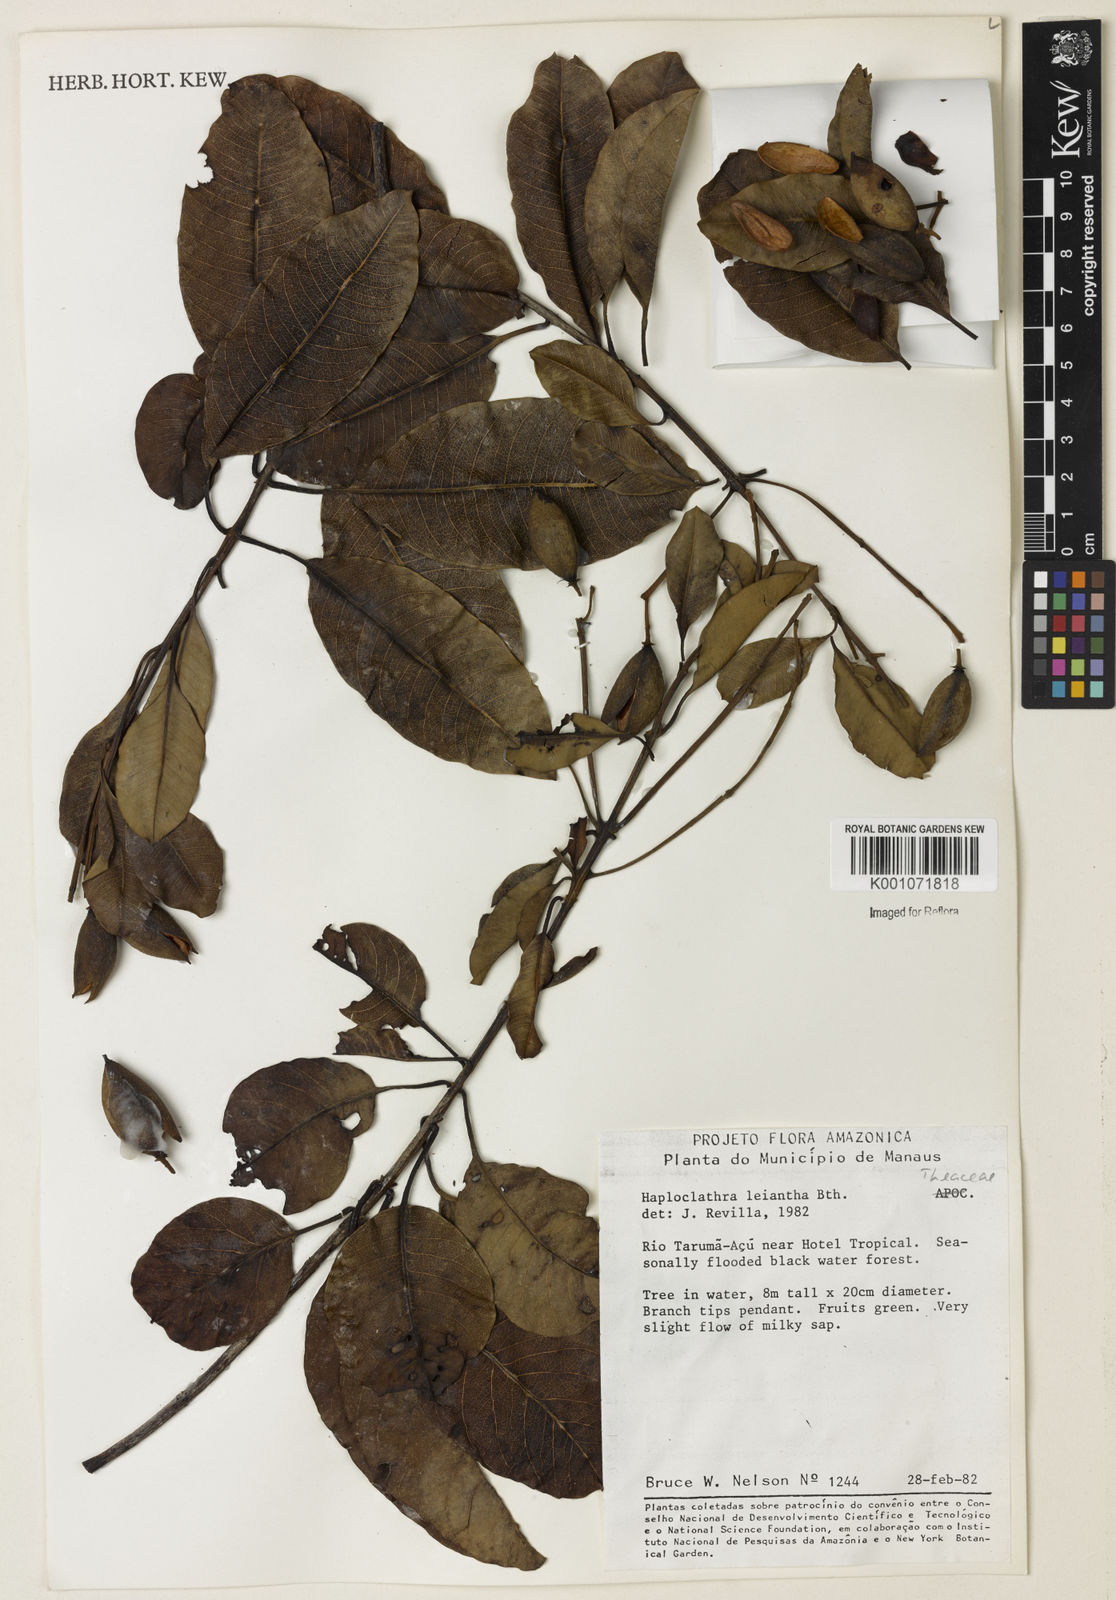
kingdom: Plantae
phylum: Tracheophyta
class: Magnoliopsida
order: Malpighiales
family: Calophyllaceae
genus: Haploclathra
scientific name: Haploclathra leiantha
